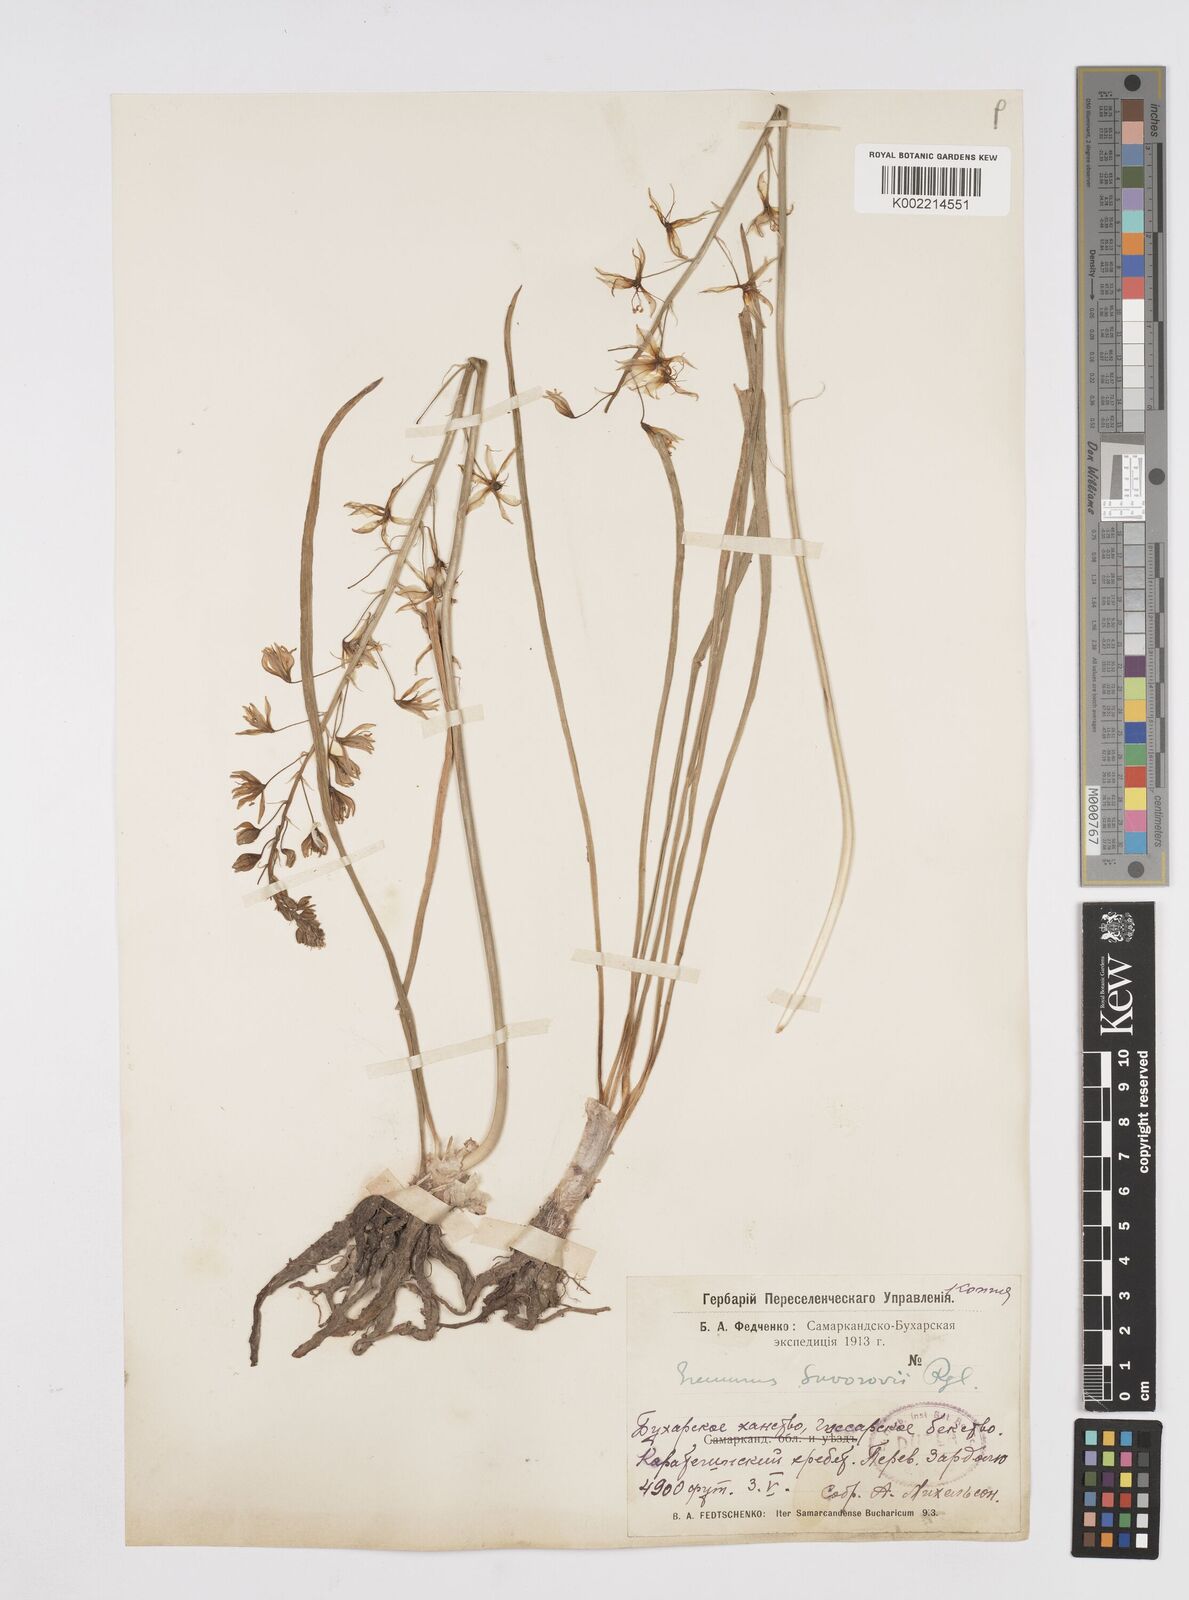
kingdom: Plantae
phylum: Tracheophyta
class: Liliopsida
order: Asparagales
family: Asphodelaceae
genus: Eremurus
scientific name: Eremurus bucharicus
